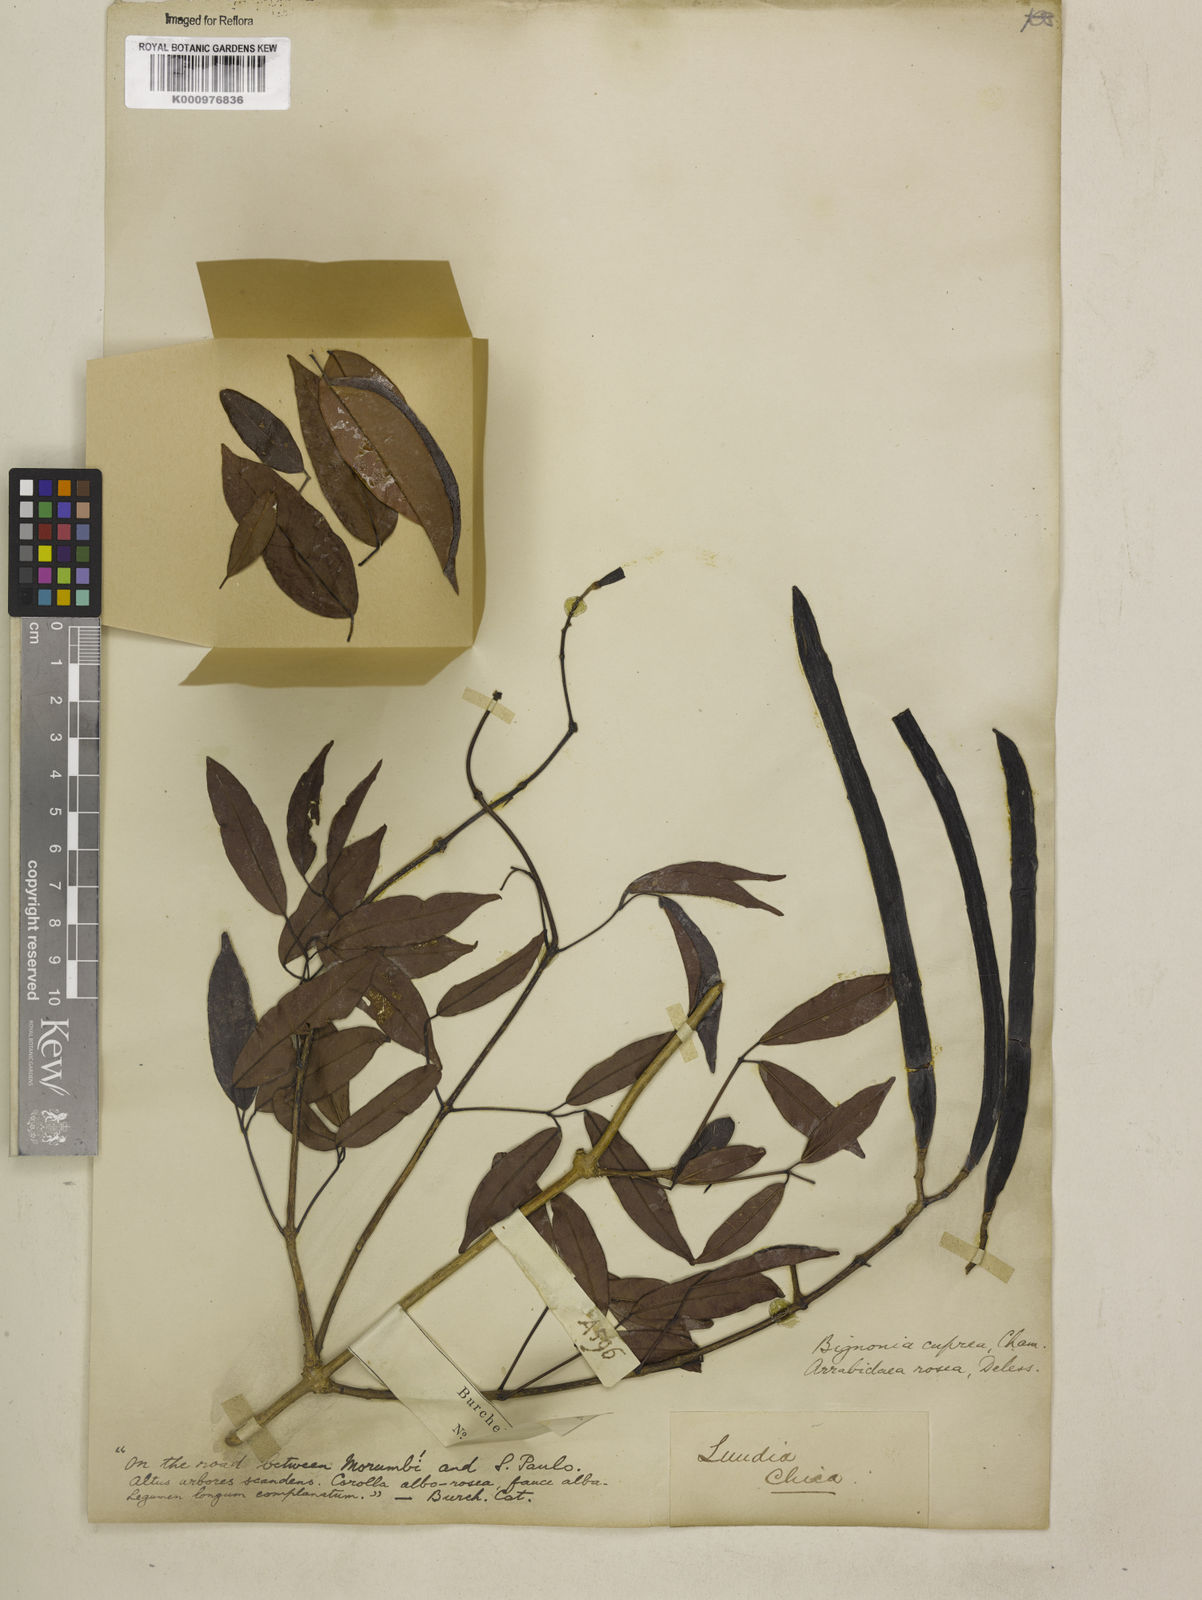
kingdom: Plantae
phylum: Tracheophyta
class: Magnoliopsida
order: Lamiales
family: Bignoniaceae
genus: Fridericia
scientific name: Fridericia chica
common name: Cricketvine
